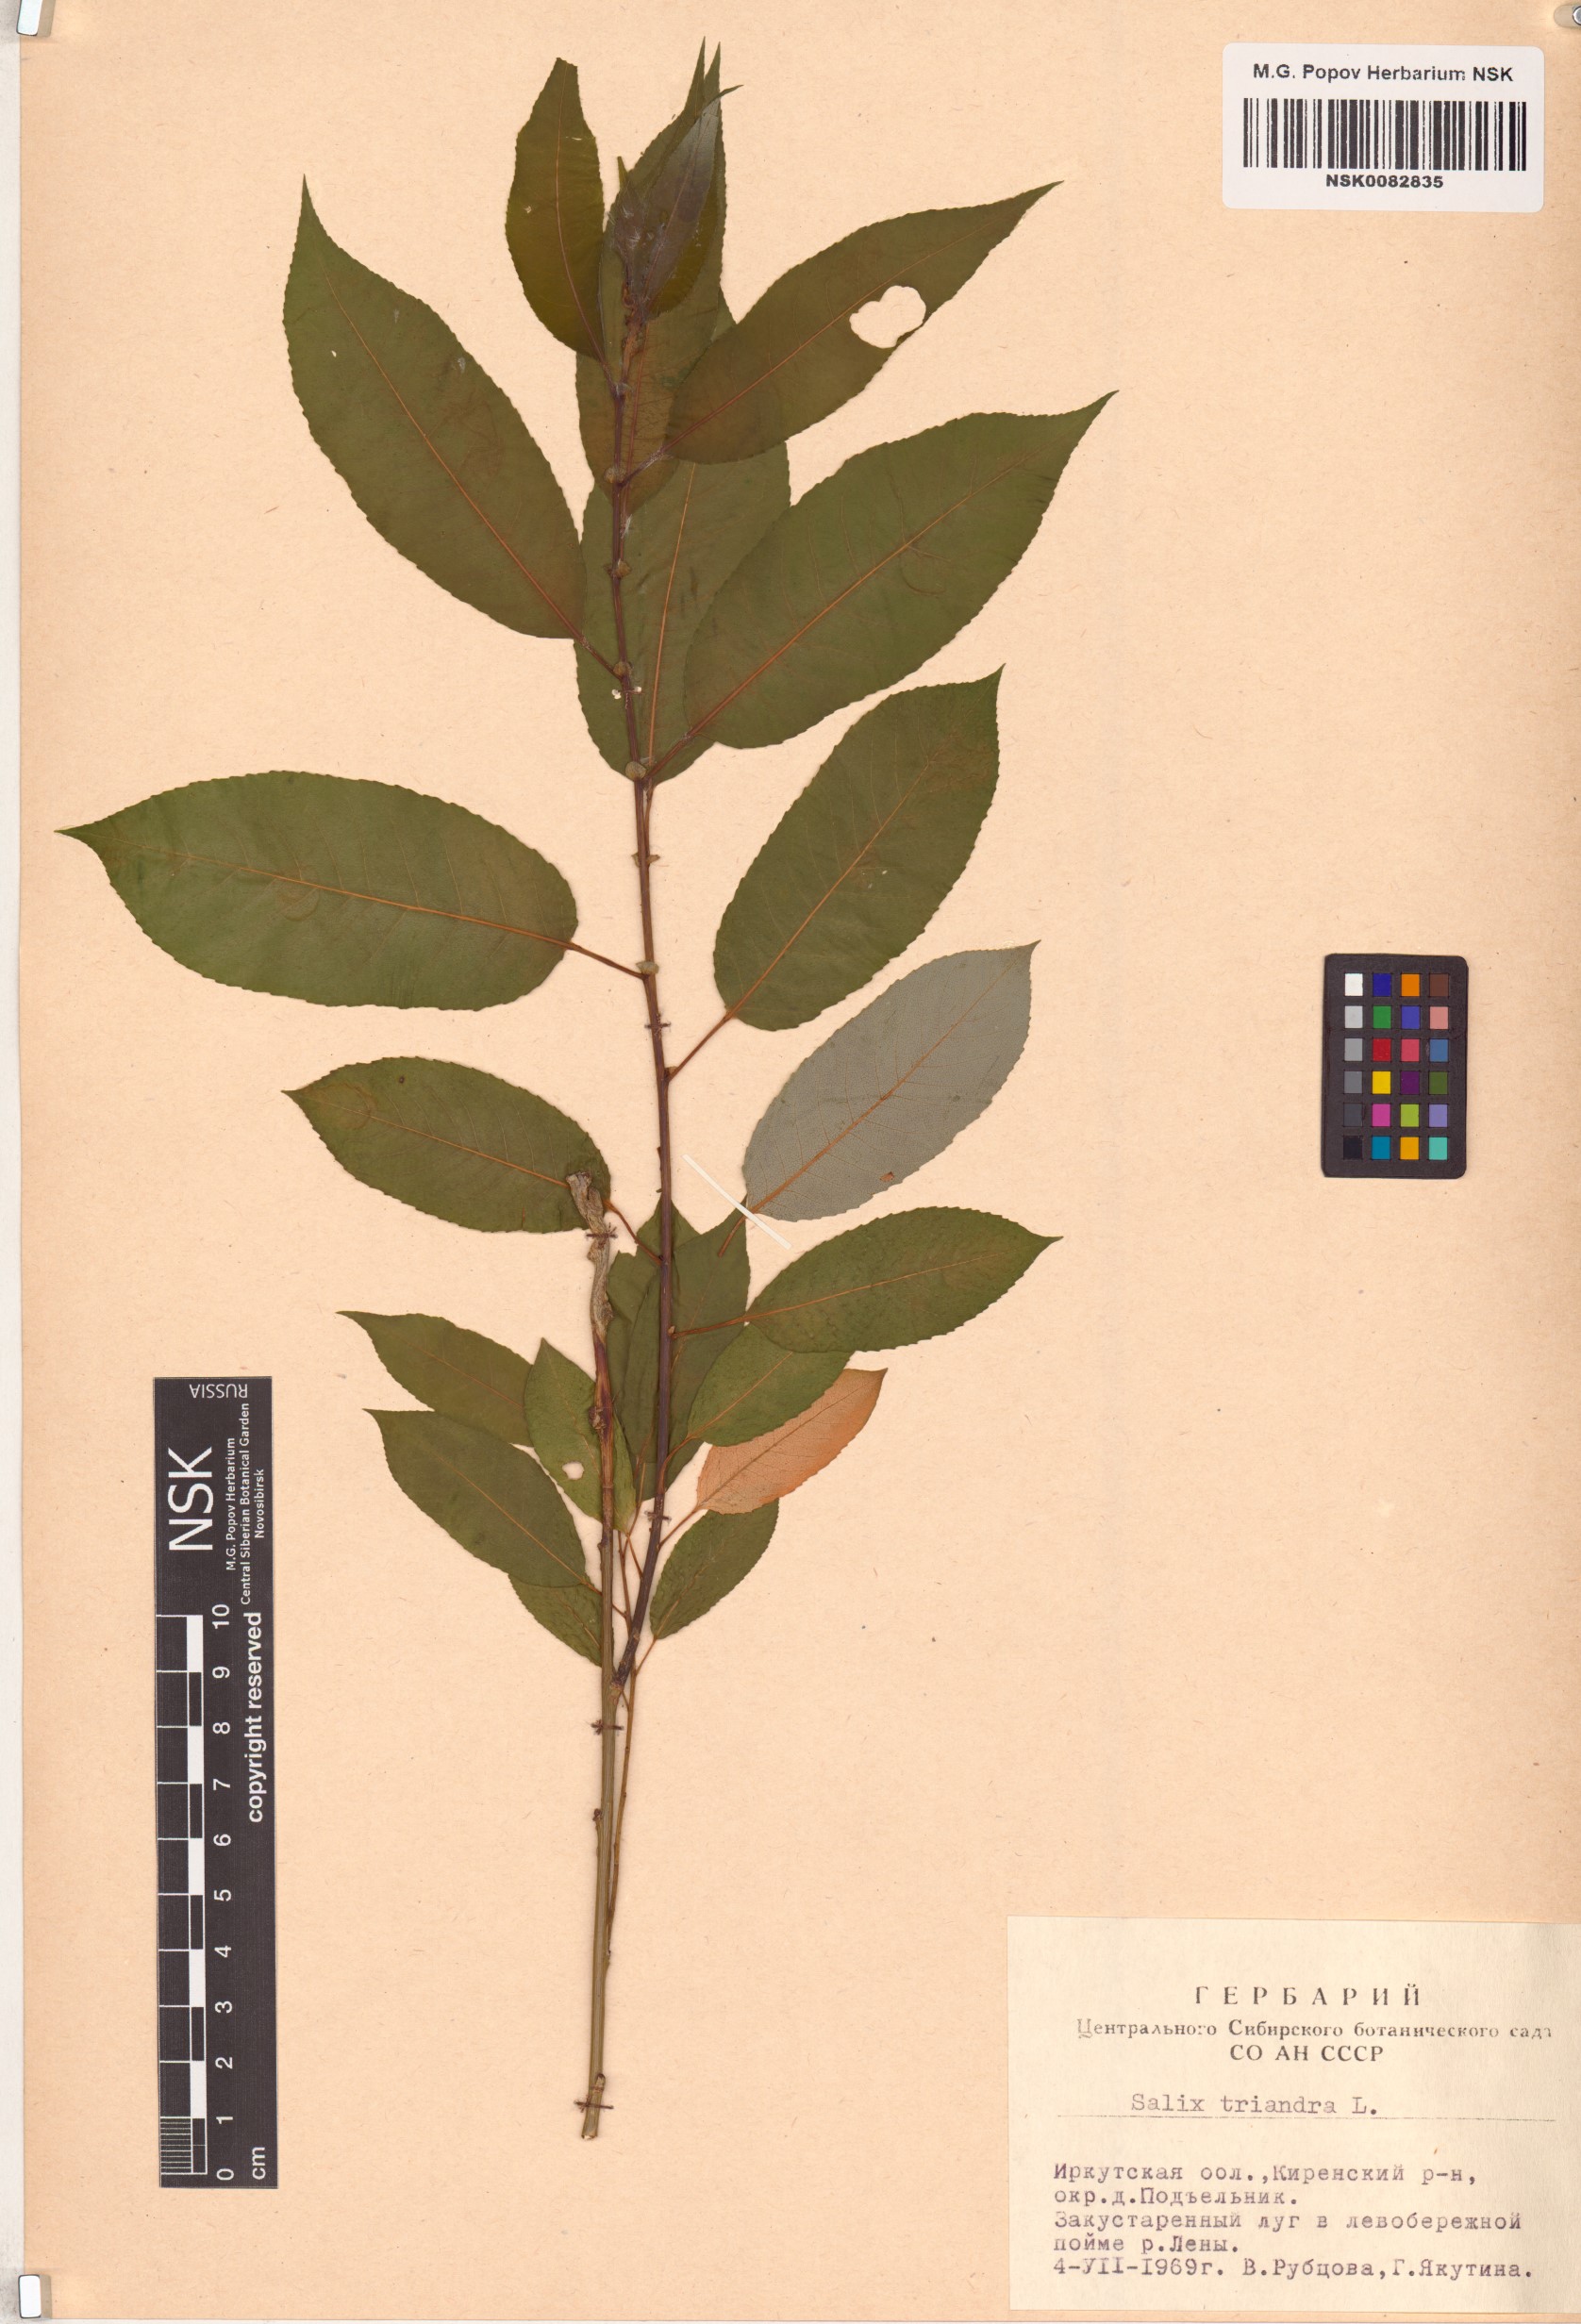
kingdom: Plantae
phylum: Tracheophyta
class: Magnoliopsida
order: Malpighiales
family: Salicaceae
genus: Salix
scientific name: Salix triandra
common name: Almond willow
